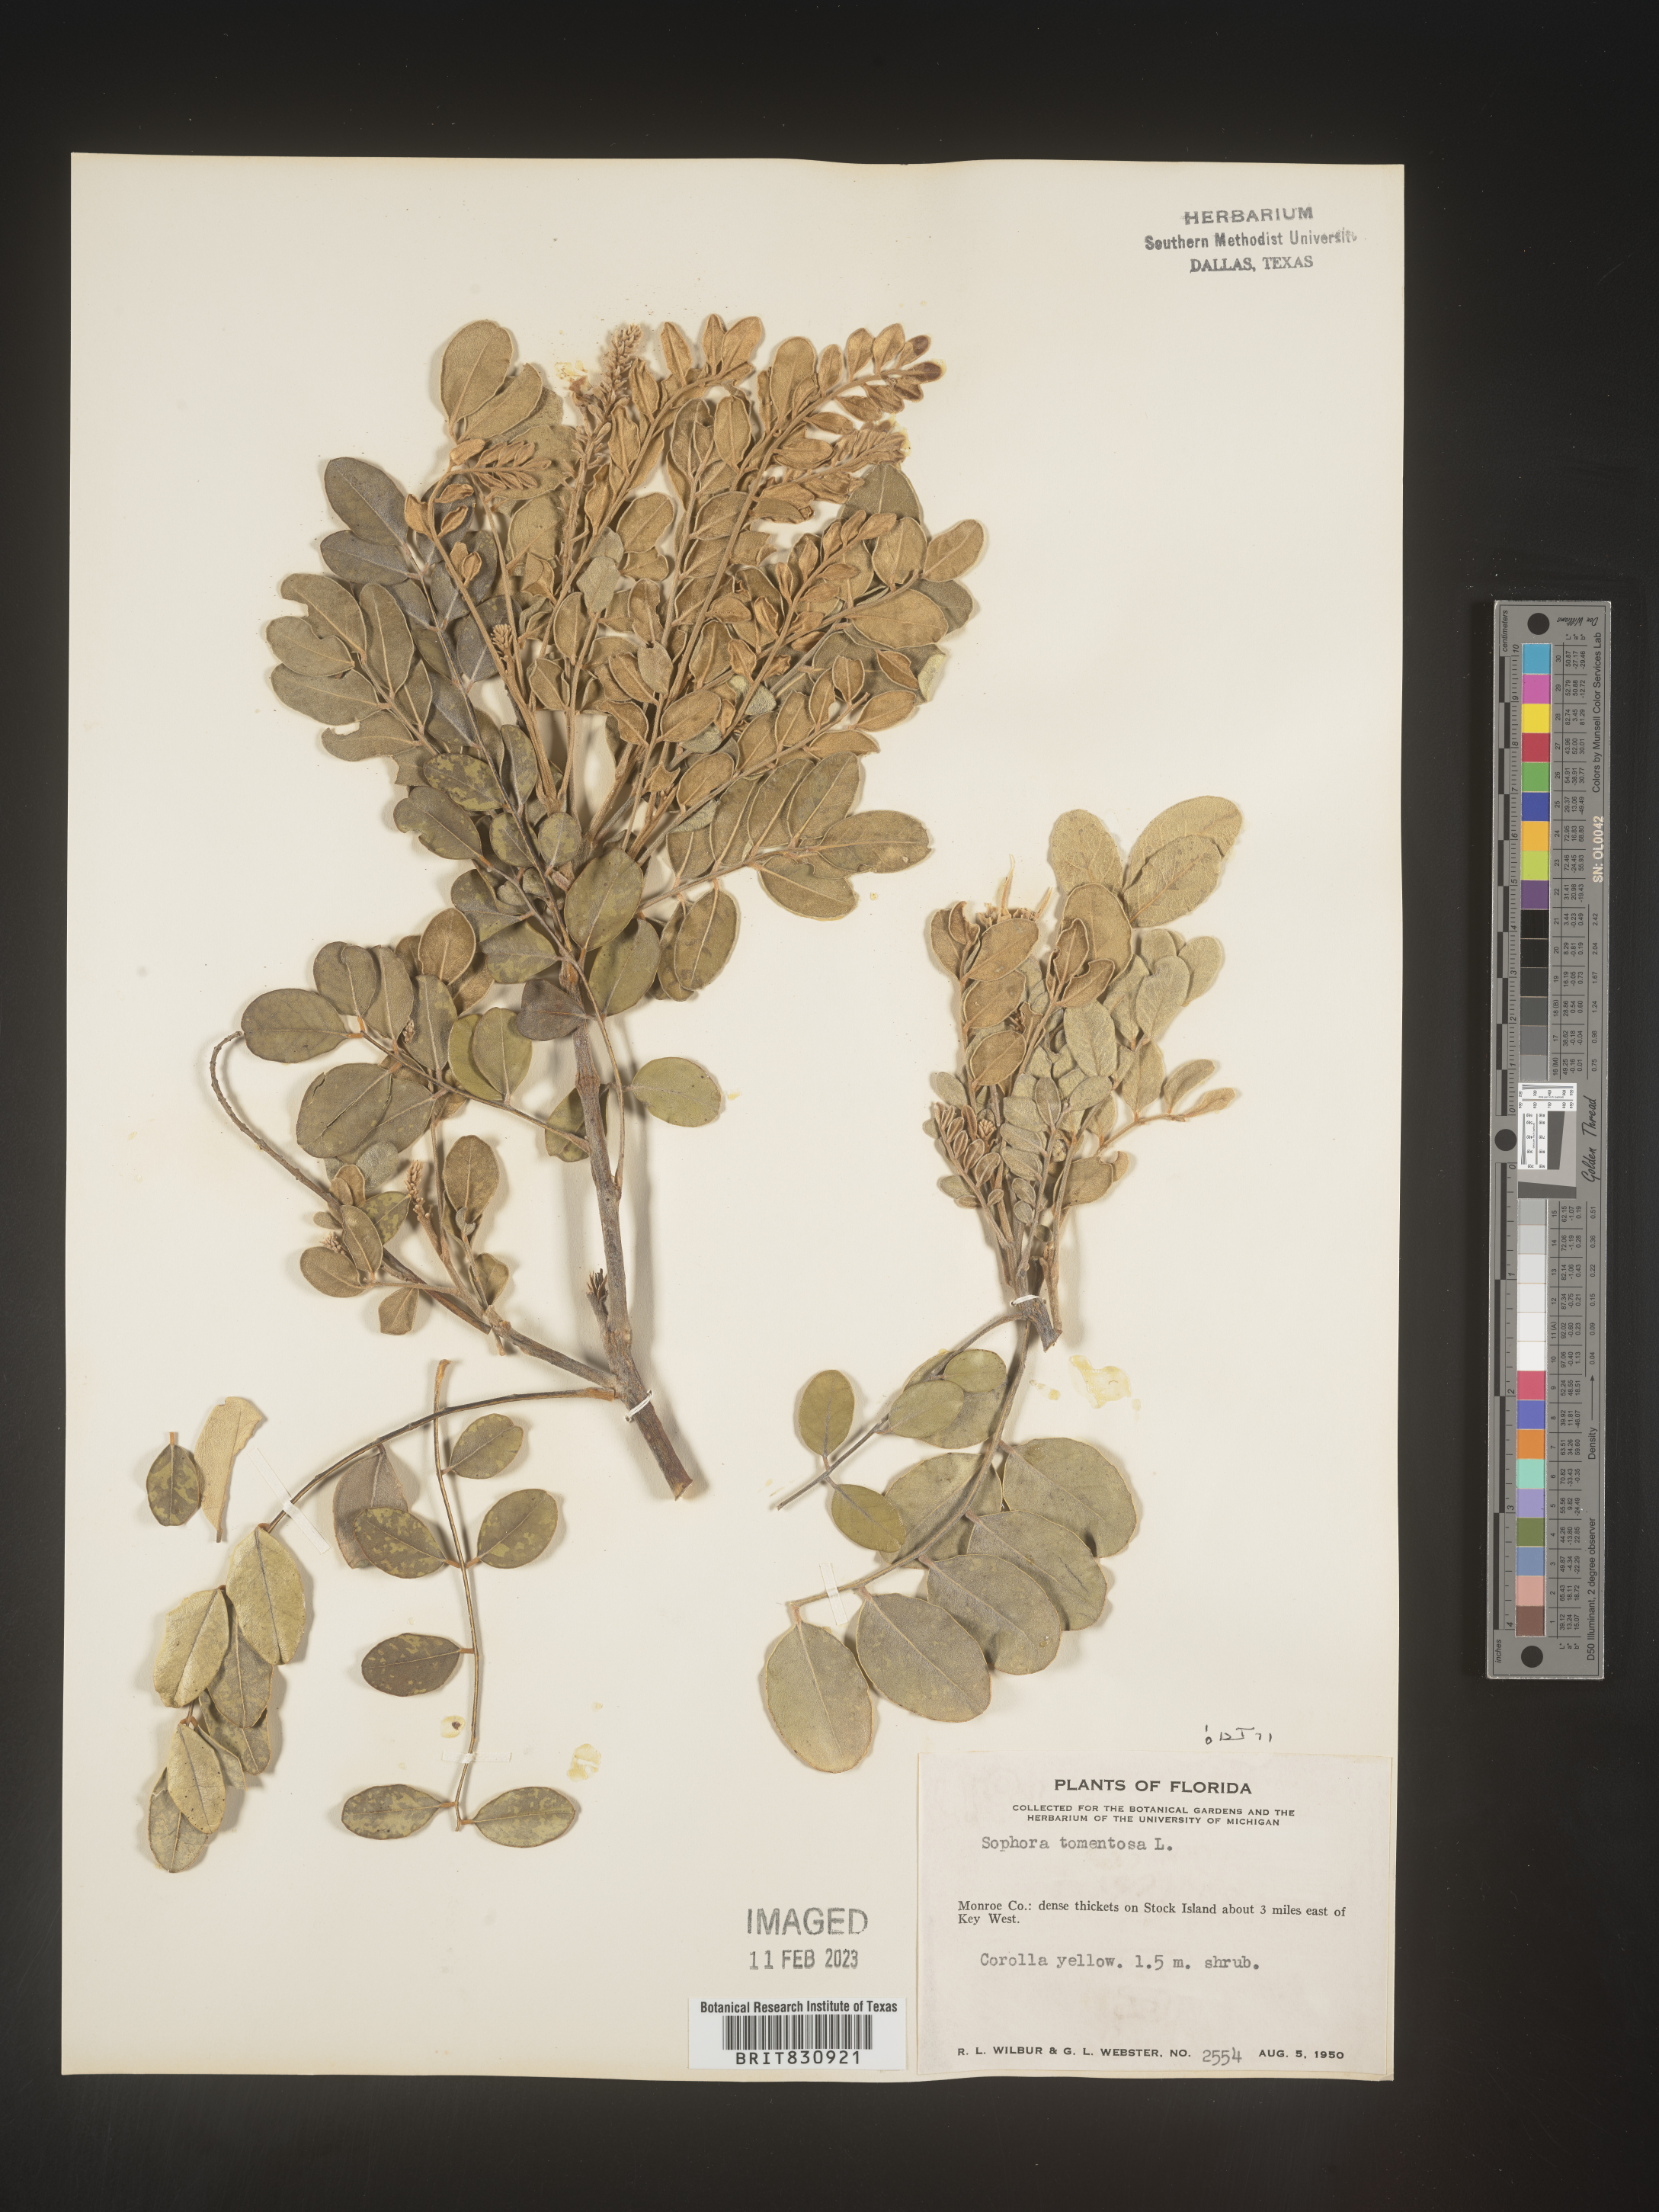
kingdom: Plantae
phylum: Tracheophyta
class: Magnoliopsida
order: Fabales
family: Fabaceae
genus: Sophora
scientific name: Sophora
